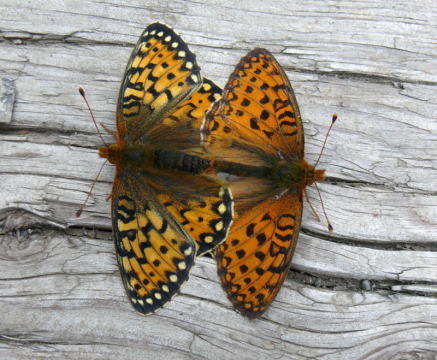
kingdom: Animalia
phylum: Arthropoda
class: Insecta
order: Lepidoptera
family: Nymphalidae
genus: Speyeria
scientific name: Speyeria mormonia
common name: Mormon Fritillary
